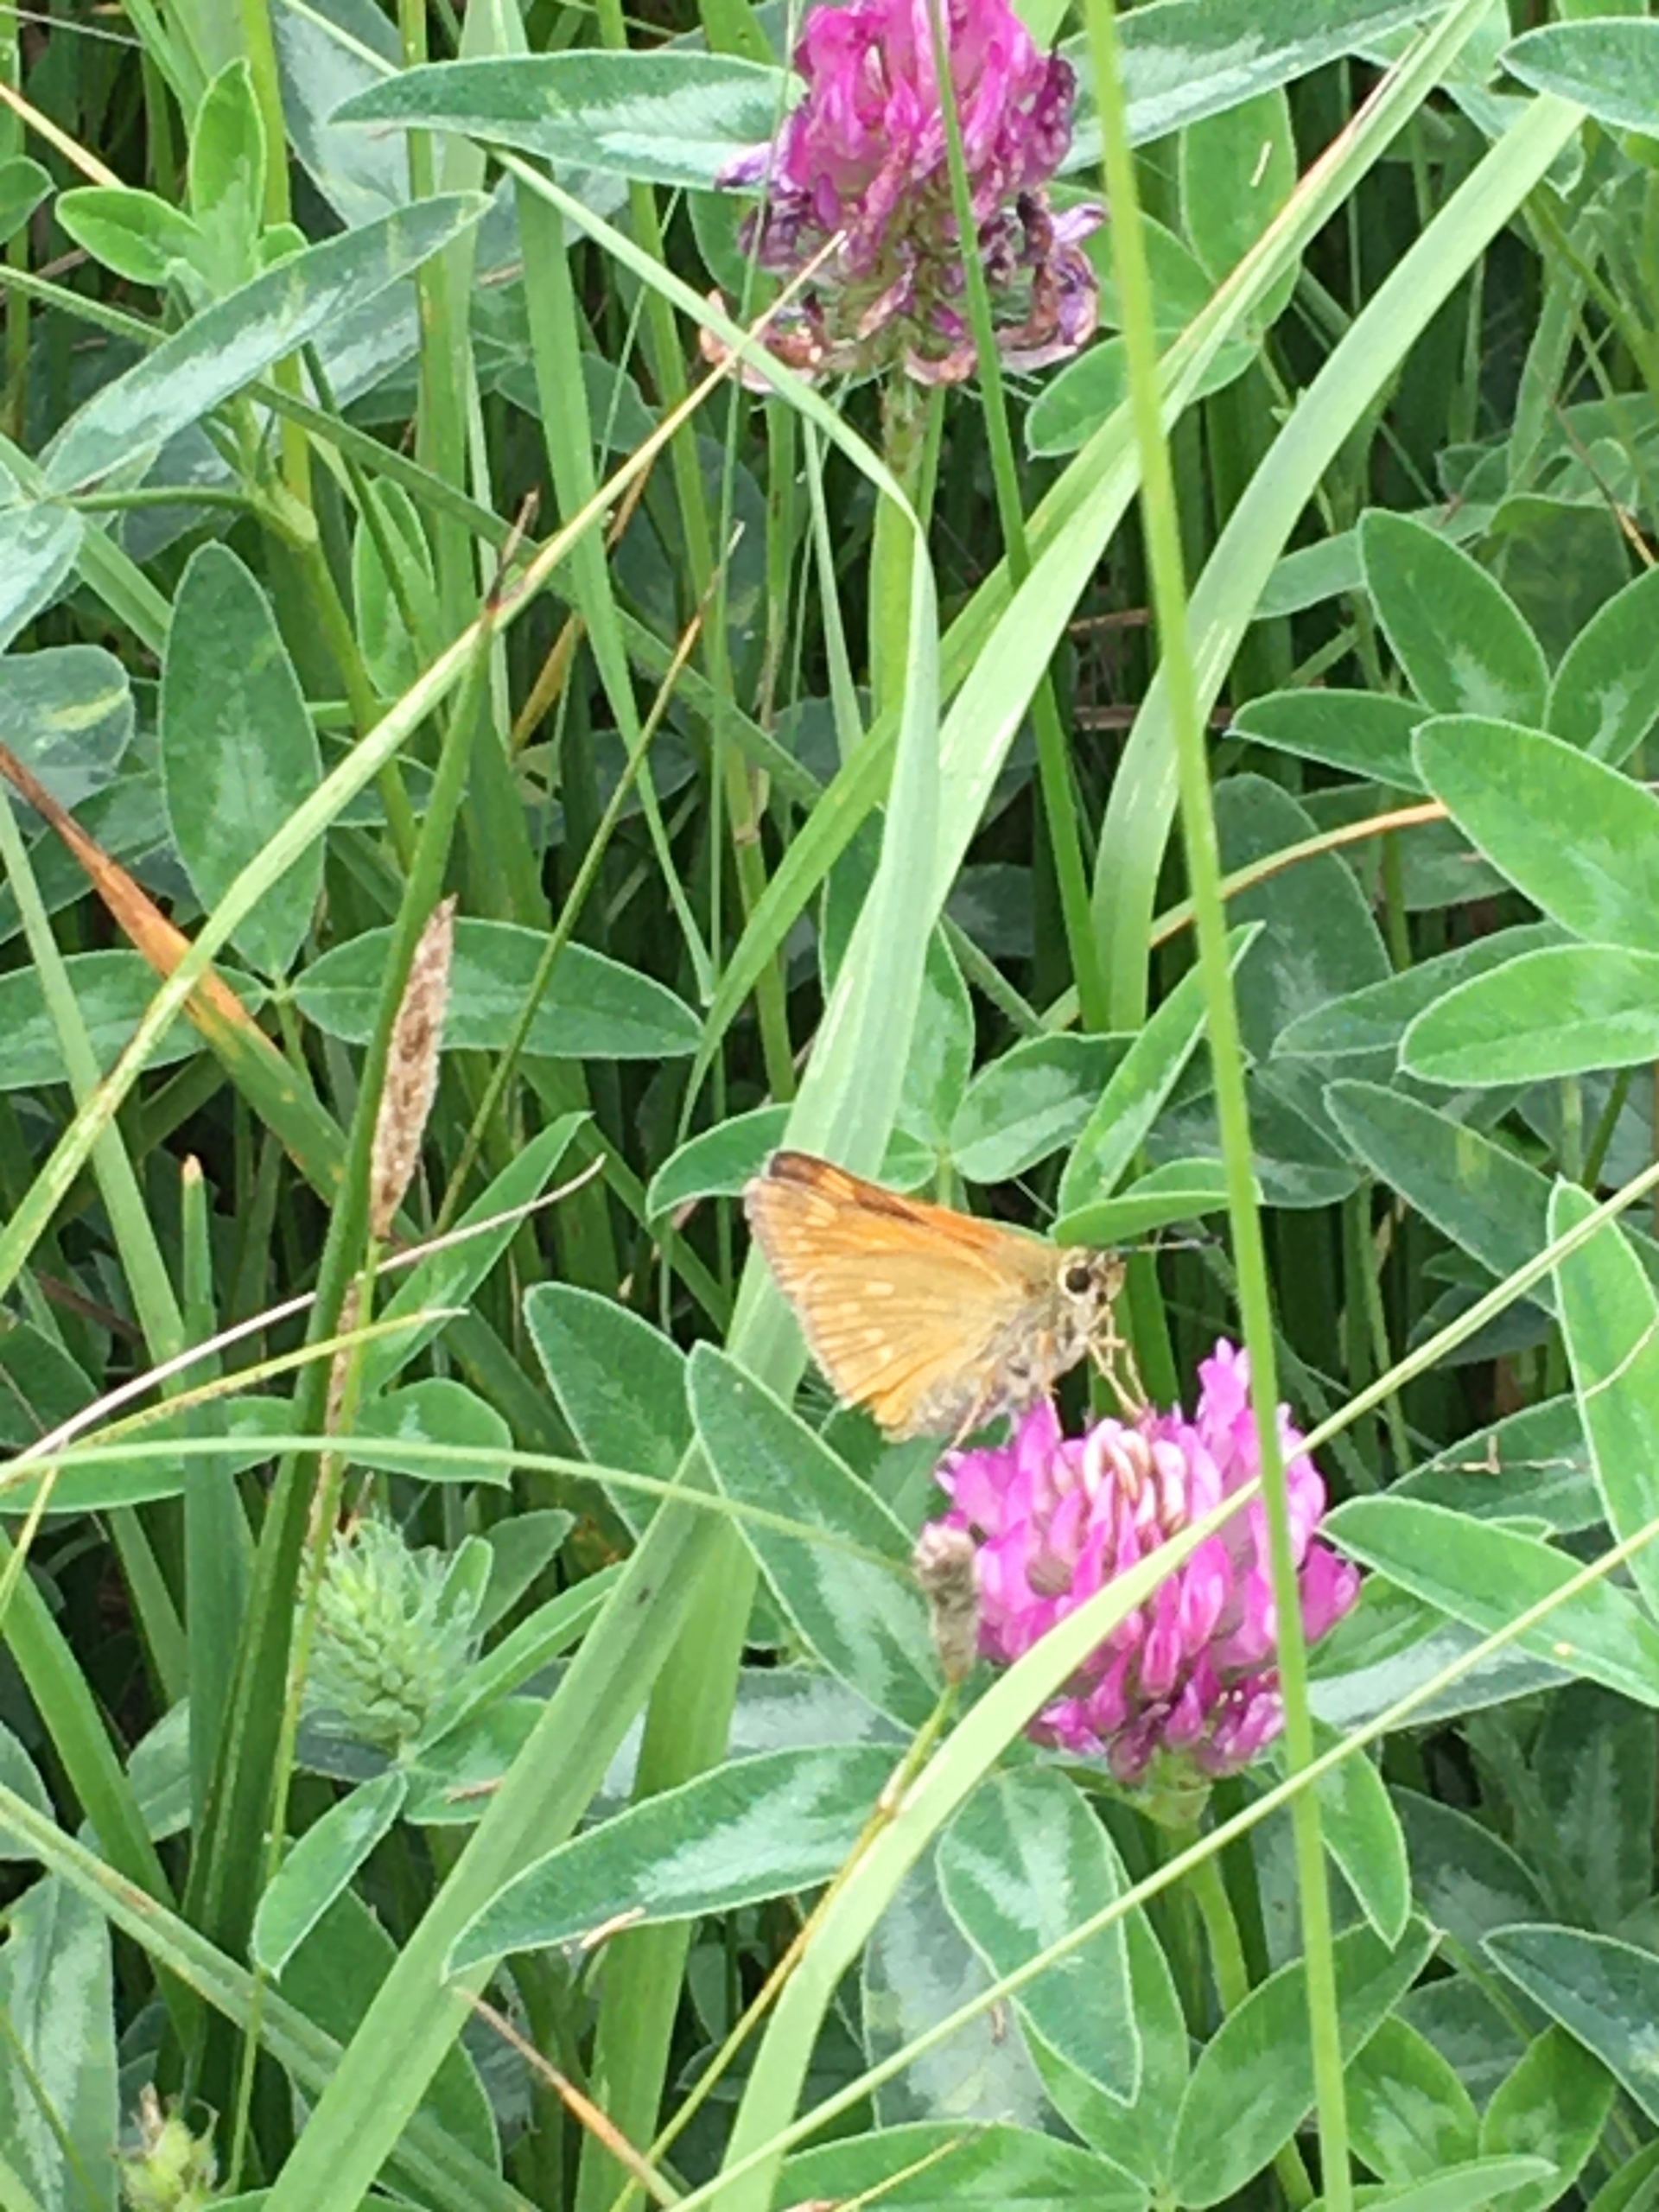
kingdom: Animalia
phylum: Arthropoda
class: Insecta
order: Lepidoptera
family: Hesperiidae
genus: Ochlodes
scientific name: Ochlodes venata
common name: Stor bredpande
